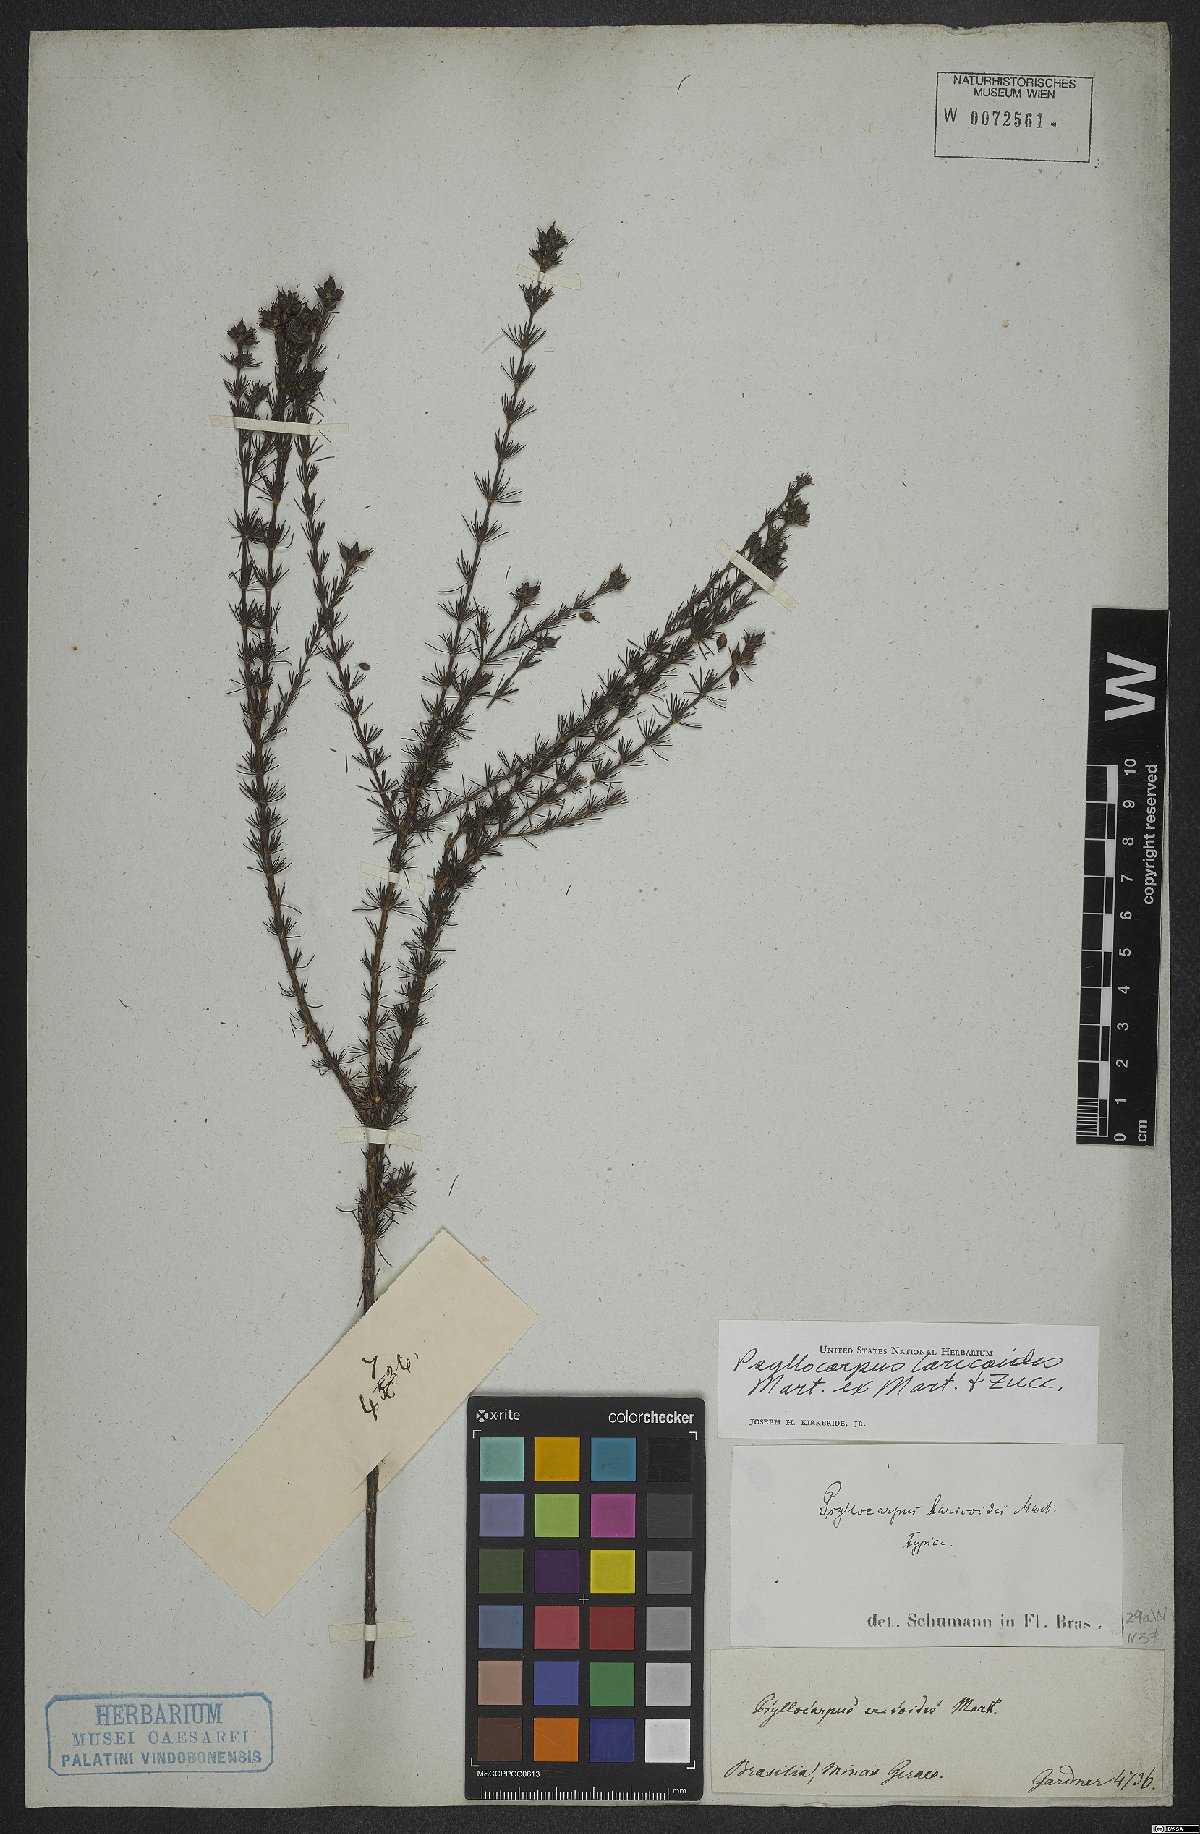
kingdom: Plantae
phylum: Tracheophyta
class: Magnoliopsida
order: Gentianales
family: Rubiaceae
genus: Psyllocarpus
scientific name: Psyllocarpus laricoides
